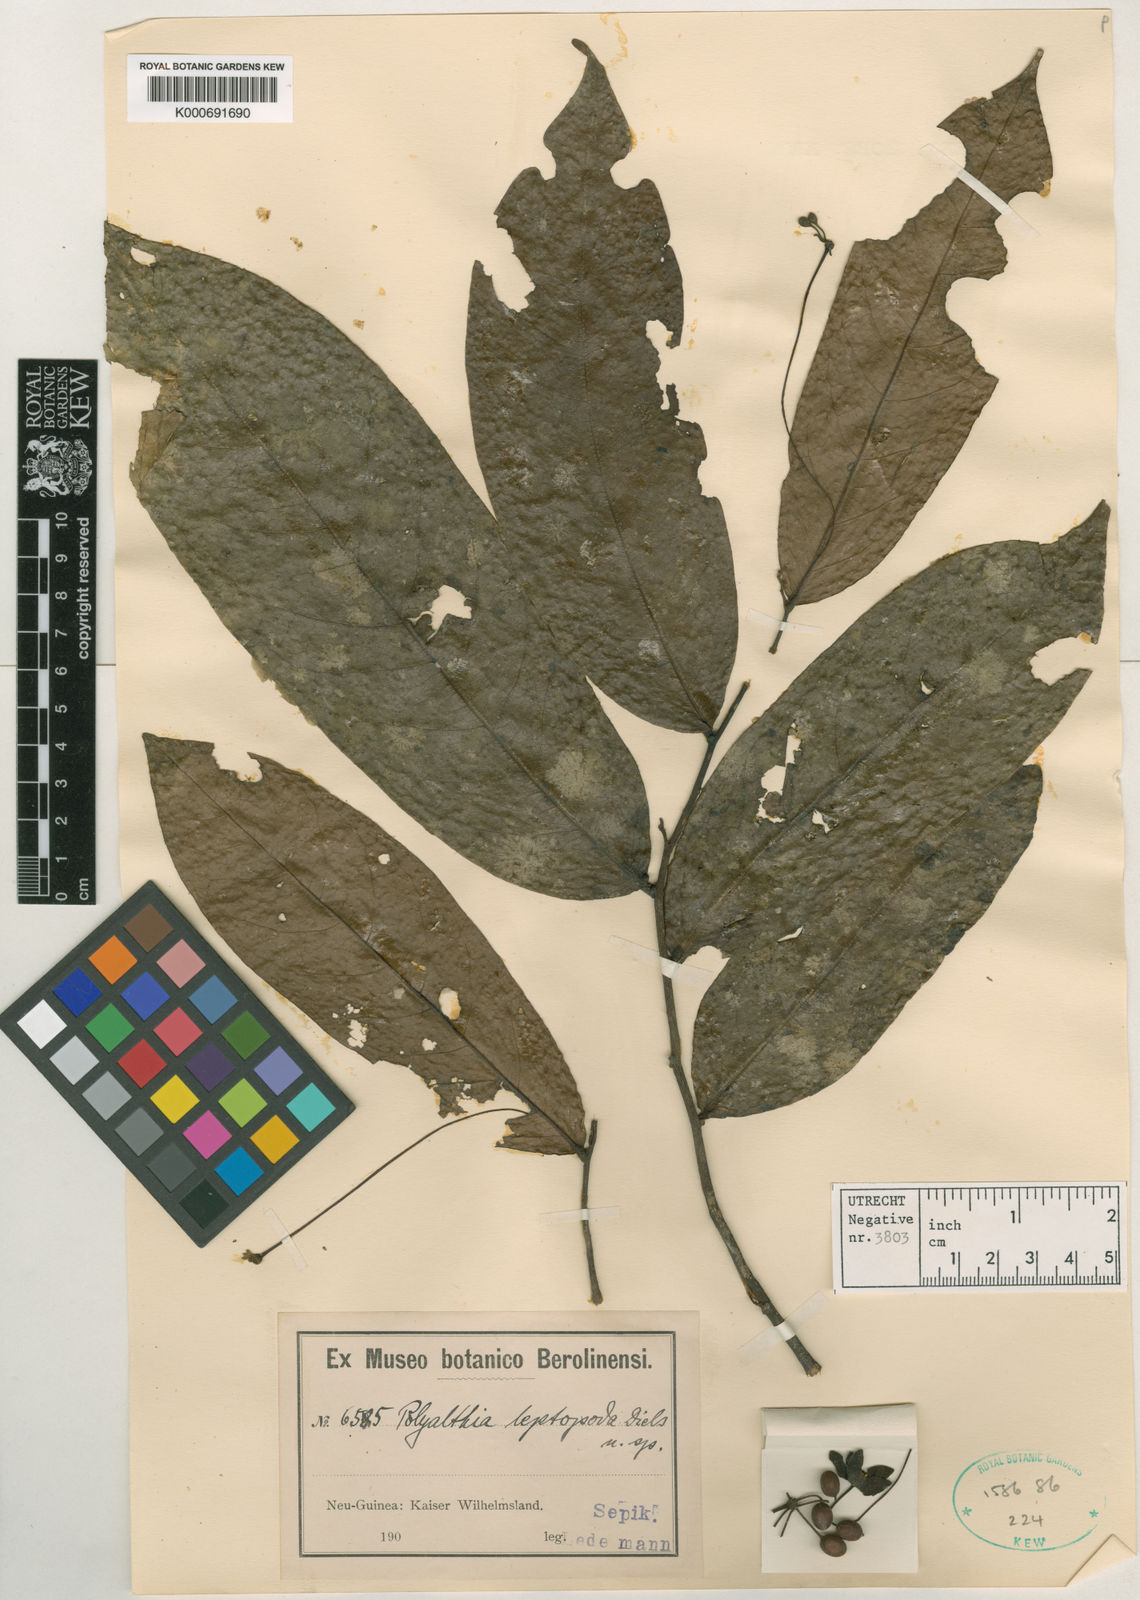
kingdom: Plantae
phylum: Tracheophyta
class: Magnoliopsida
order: Magnoliales
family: Annonaceae
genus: Hubera
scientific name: Hubera leptopoda
